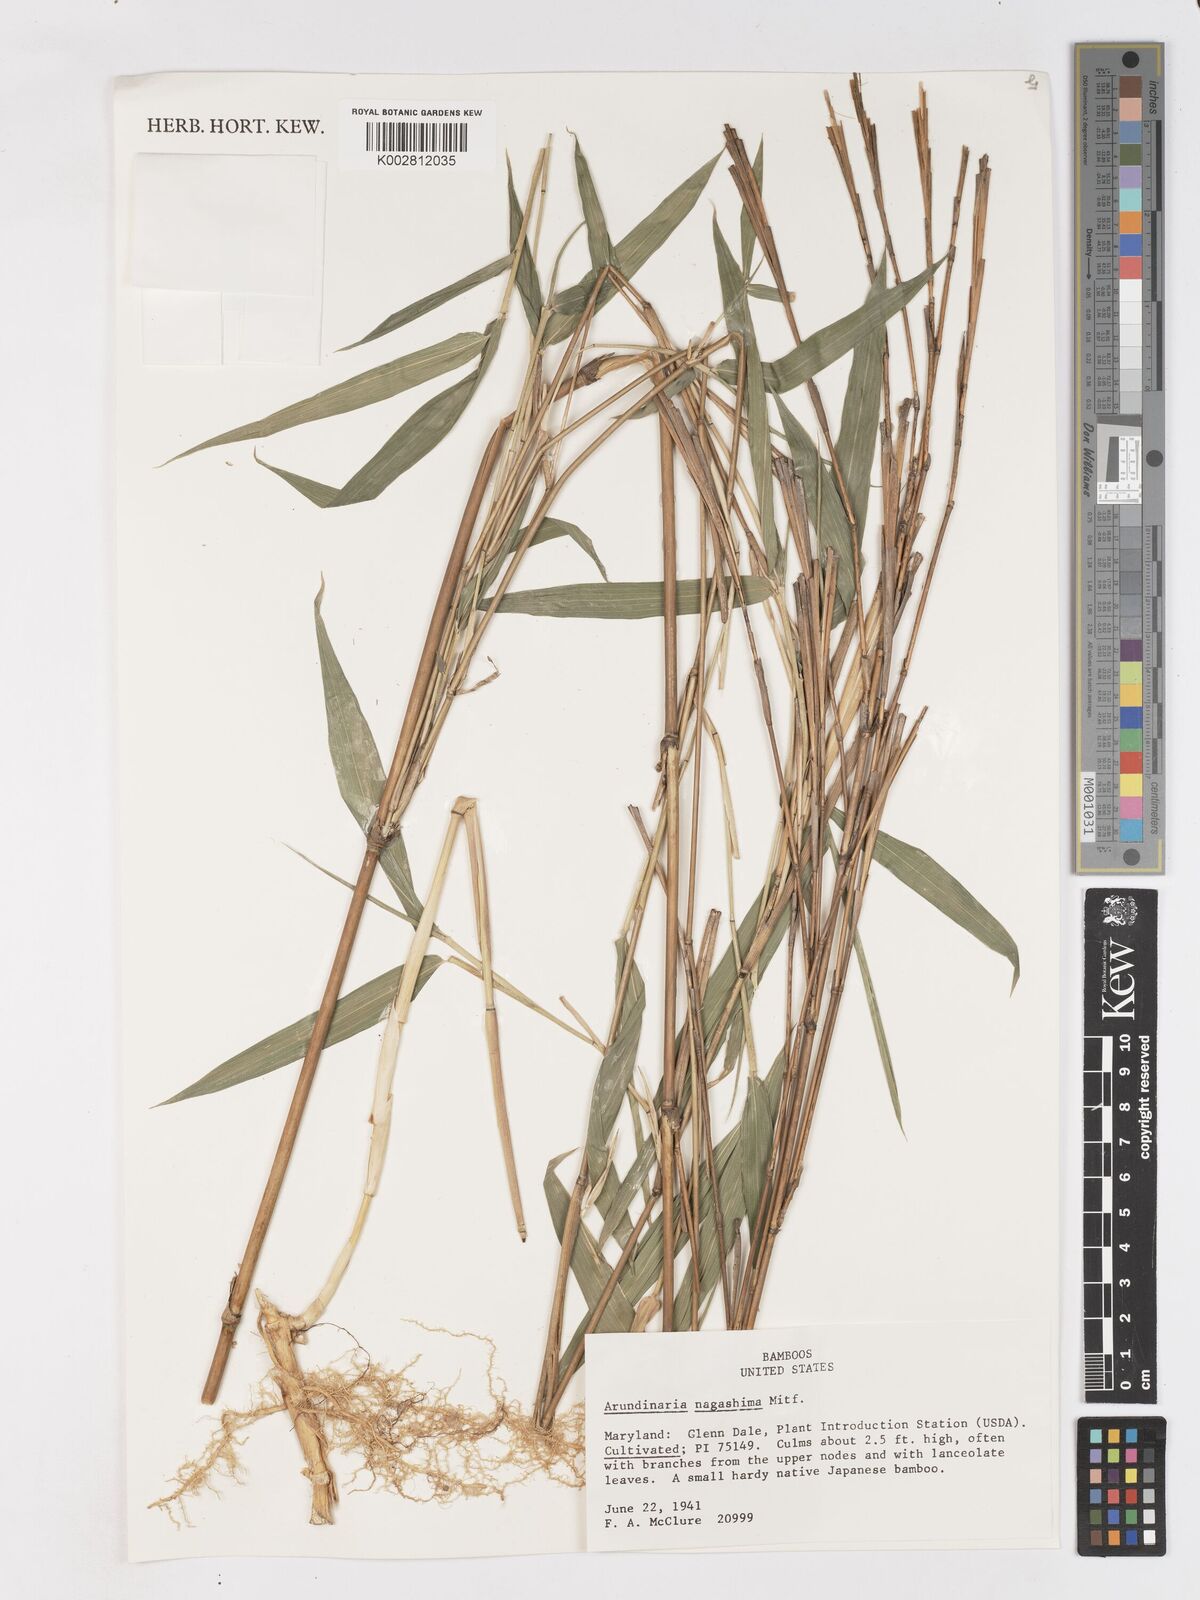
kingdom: Plantae
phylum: Tracheophyta
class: Liliopsida
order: Poales
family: Poaceae
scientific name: Poaceae
